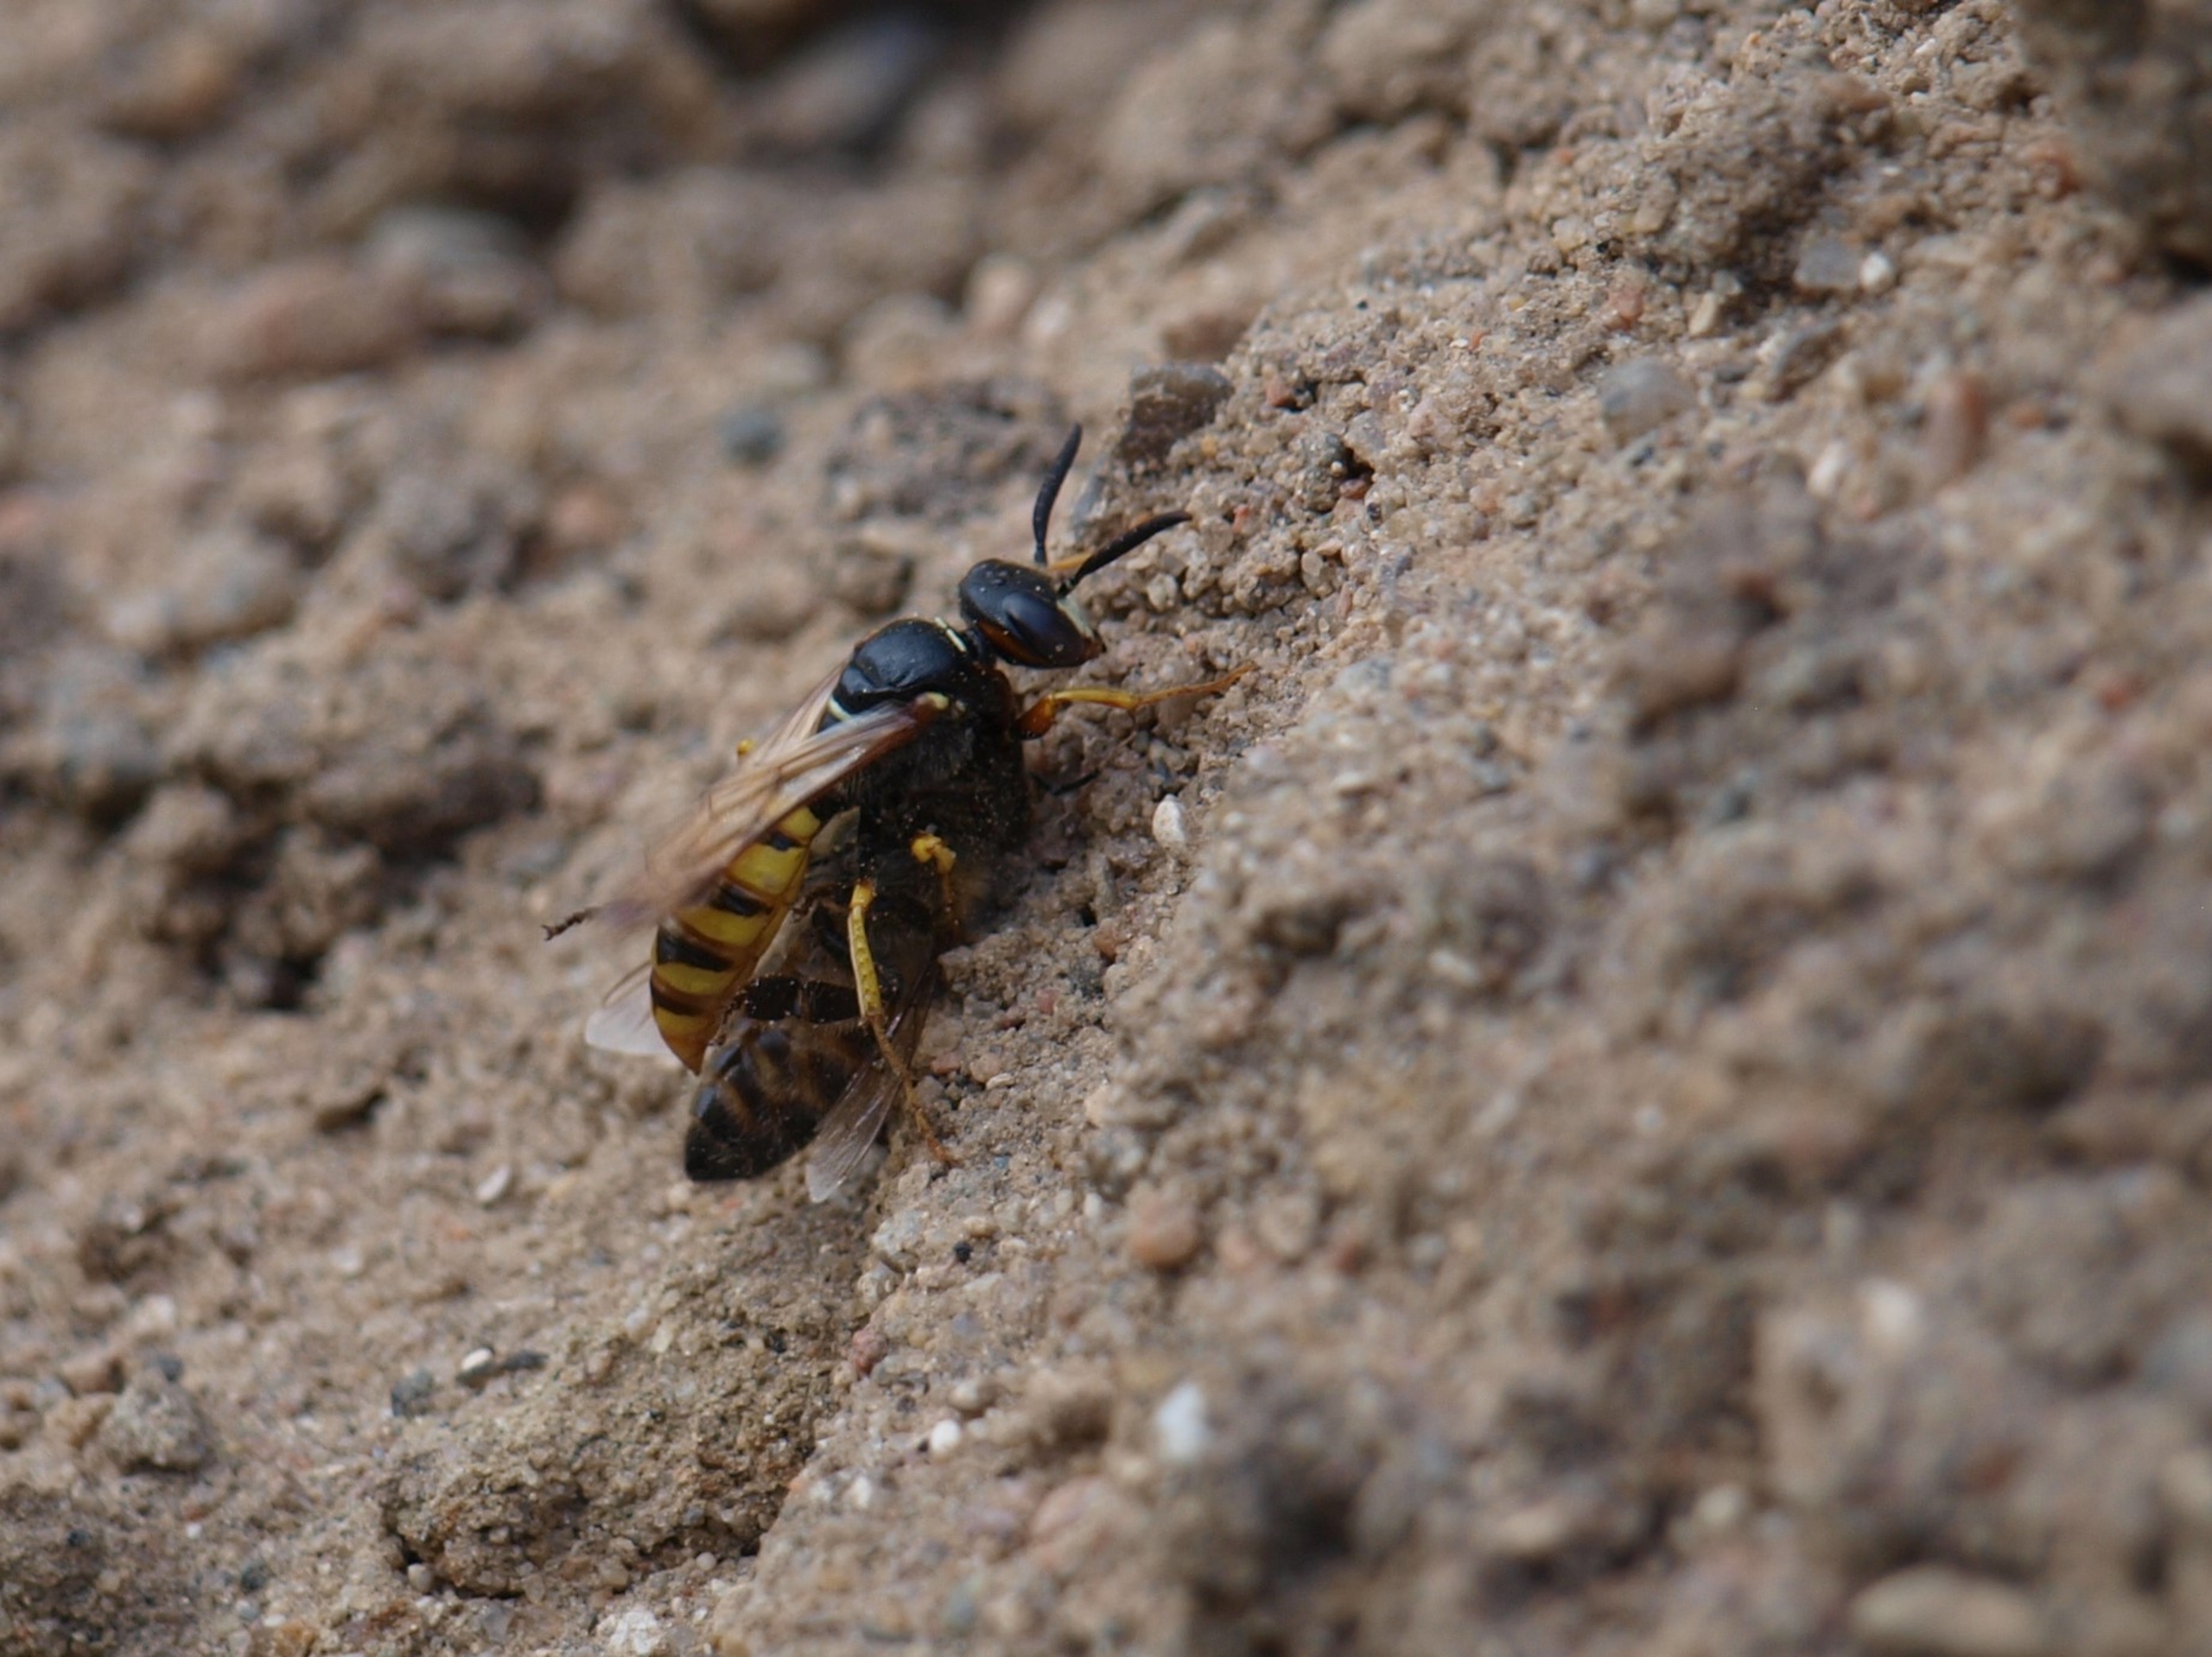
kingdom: Animalia
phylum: Arthropoda
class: Insecta
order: Hymenoptera
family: Crabronidae
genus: Philanthus
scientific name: Philanthus triangulum
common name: Biulv
